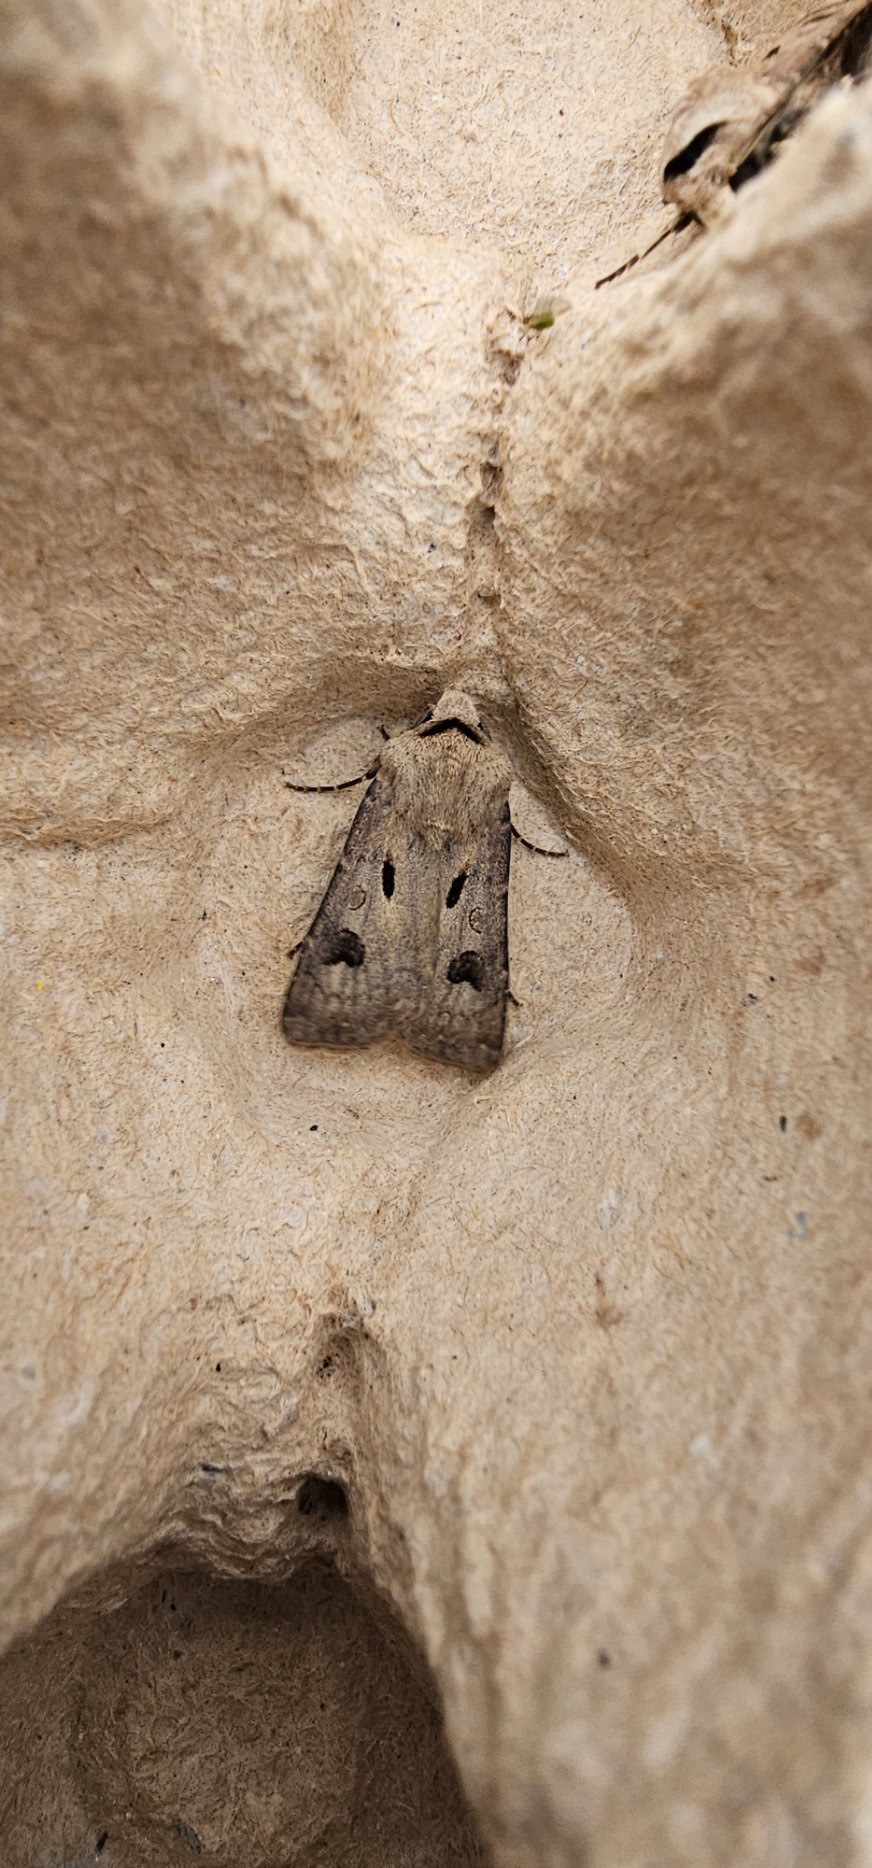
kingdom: Animalia
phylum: Arthropoda
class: Insecta
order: Lepidoptera
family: Noctuidae
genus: Agrotis
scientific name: Agrotis exclamationis
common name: Udråbstegnsugle
